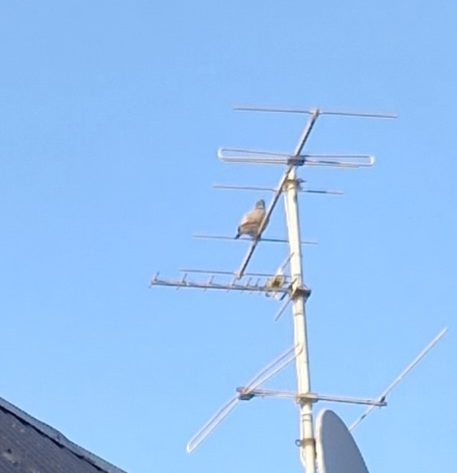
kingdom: Animalia
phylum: Chordata
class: Aves
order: Columbiformes
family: Columbidae
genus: Columba
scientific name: Columba palumbus
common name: Ringdue
